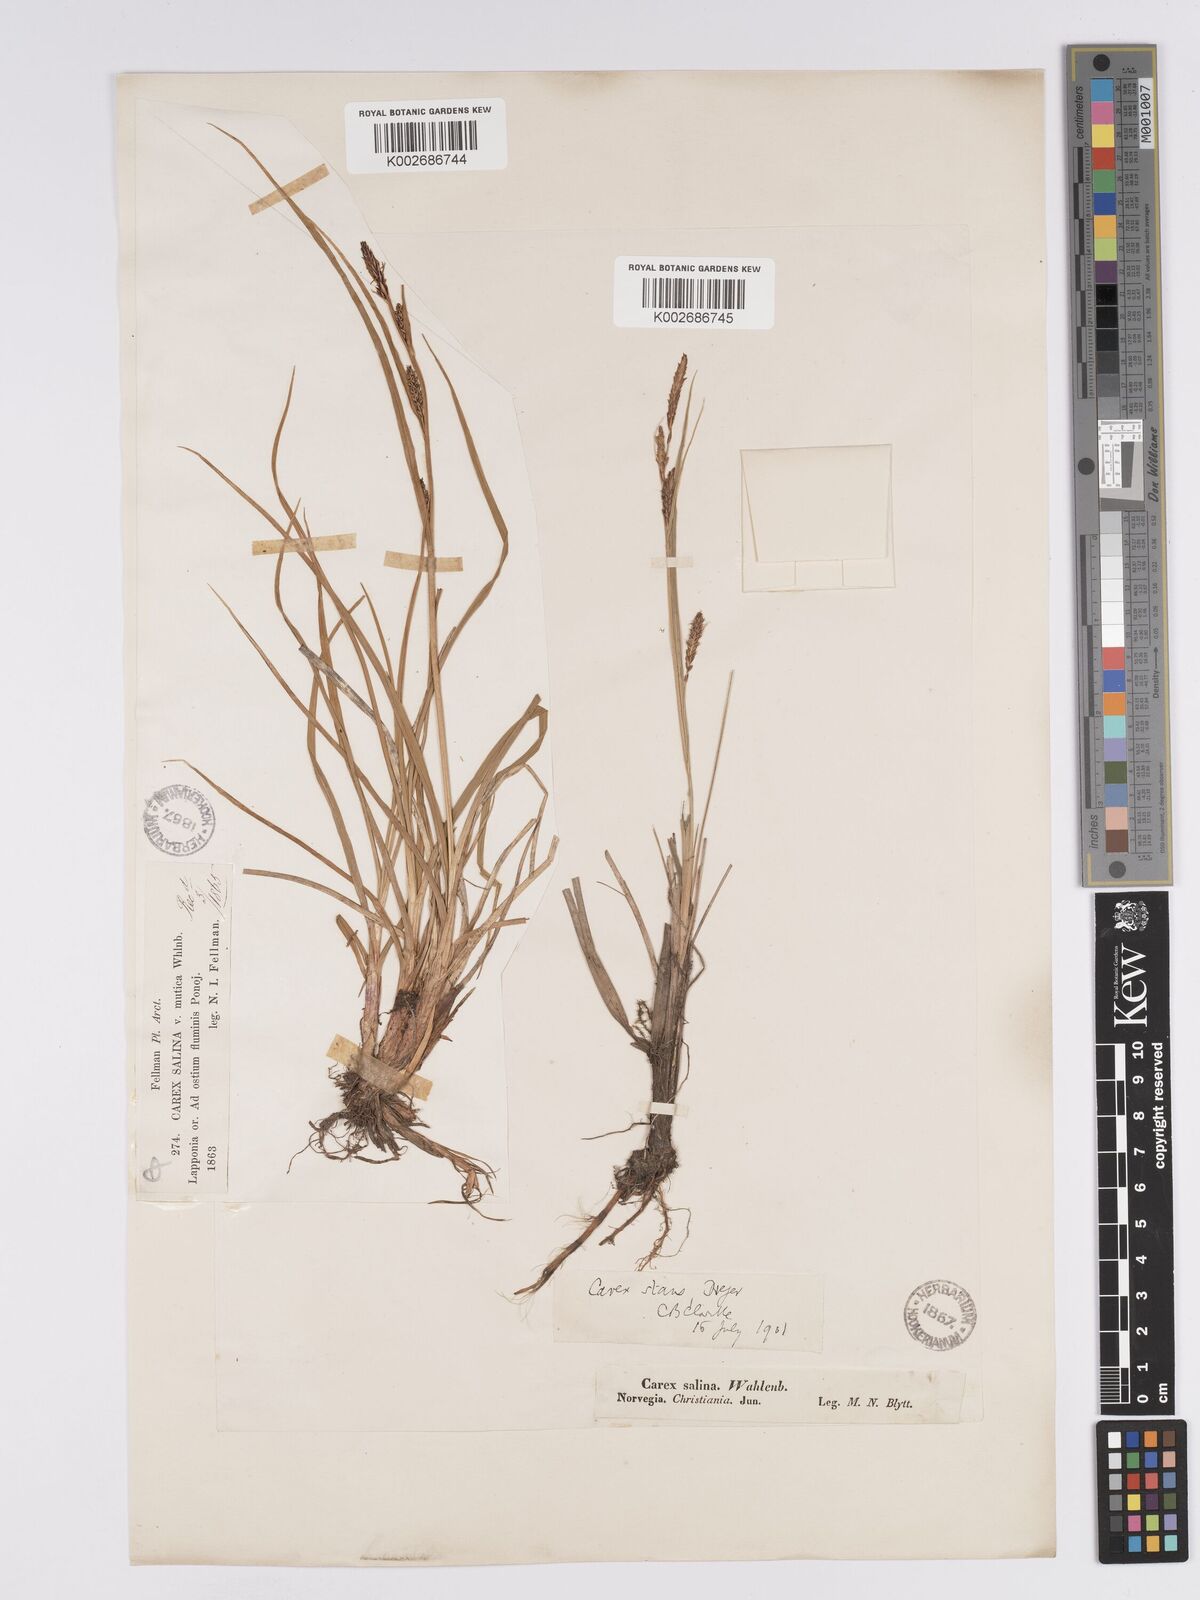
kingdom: Plantae
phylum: Tracheophyta
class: Liliopsida
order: Poales
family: Cyperaceae
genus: Carex
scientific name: Carex aquatilis
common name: Water sedge
